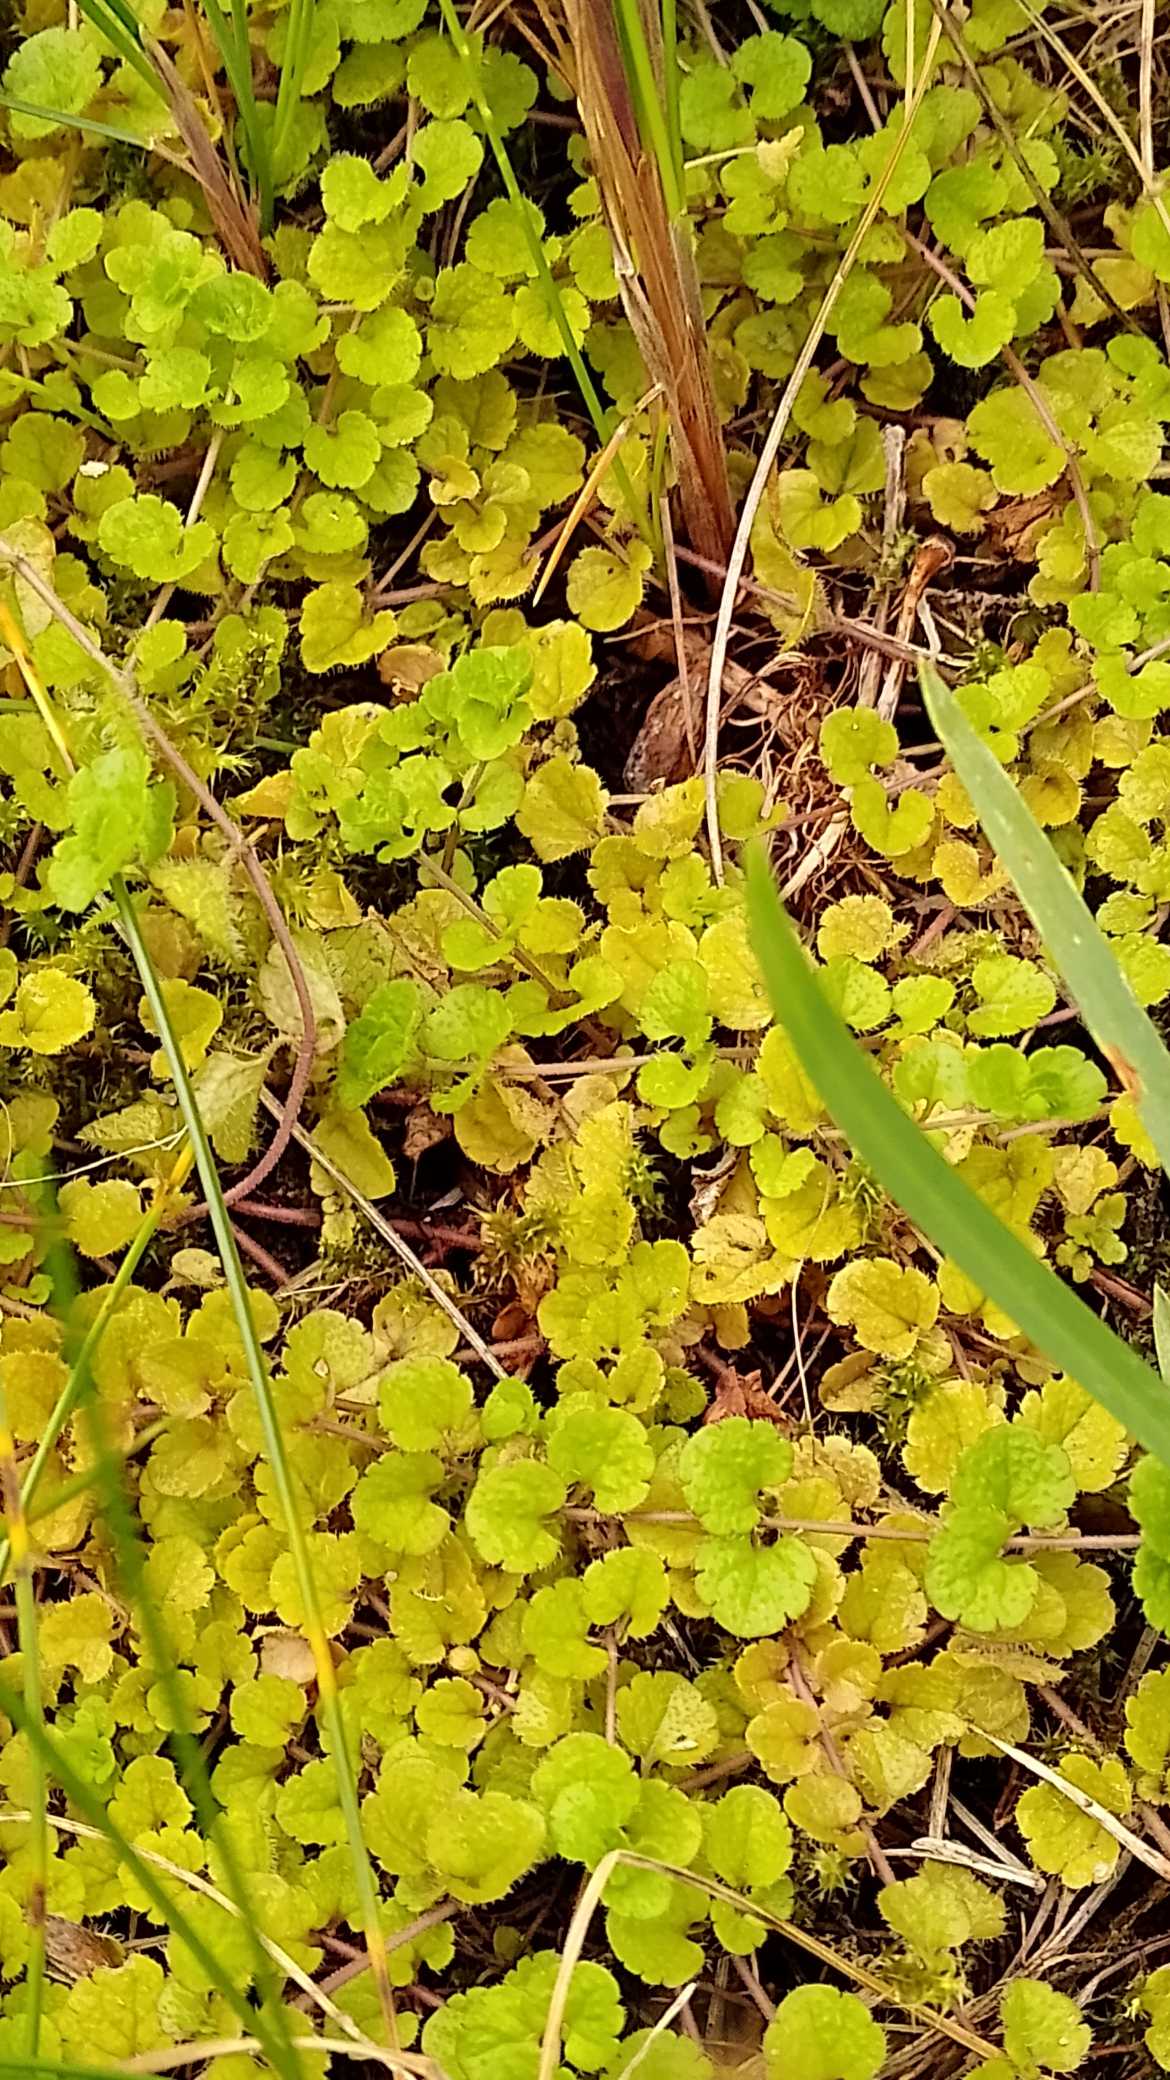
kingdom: Plantae
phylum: Tracheophyta
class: Magnoliopsida
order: Lamiales
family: Plantaginaceae
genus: Veronica
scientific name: Veronica filiformis
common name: Tråd-ærenpris
